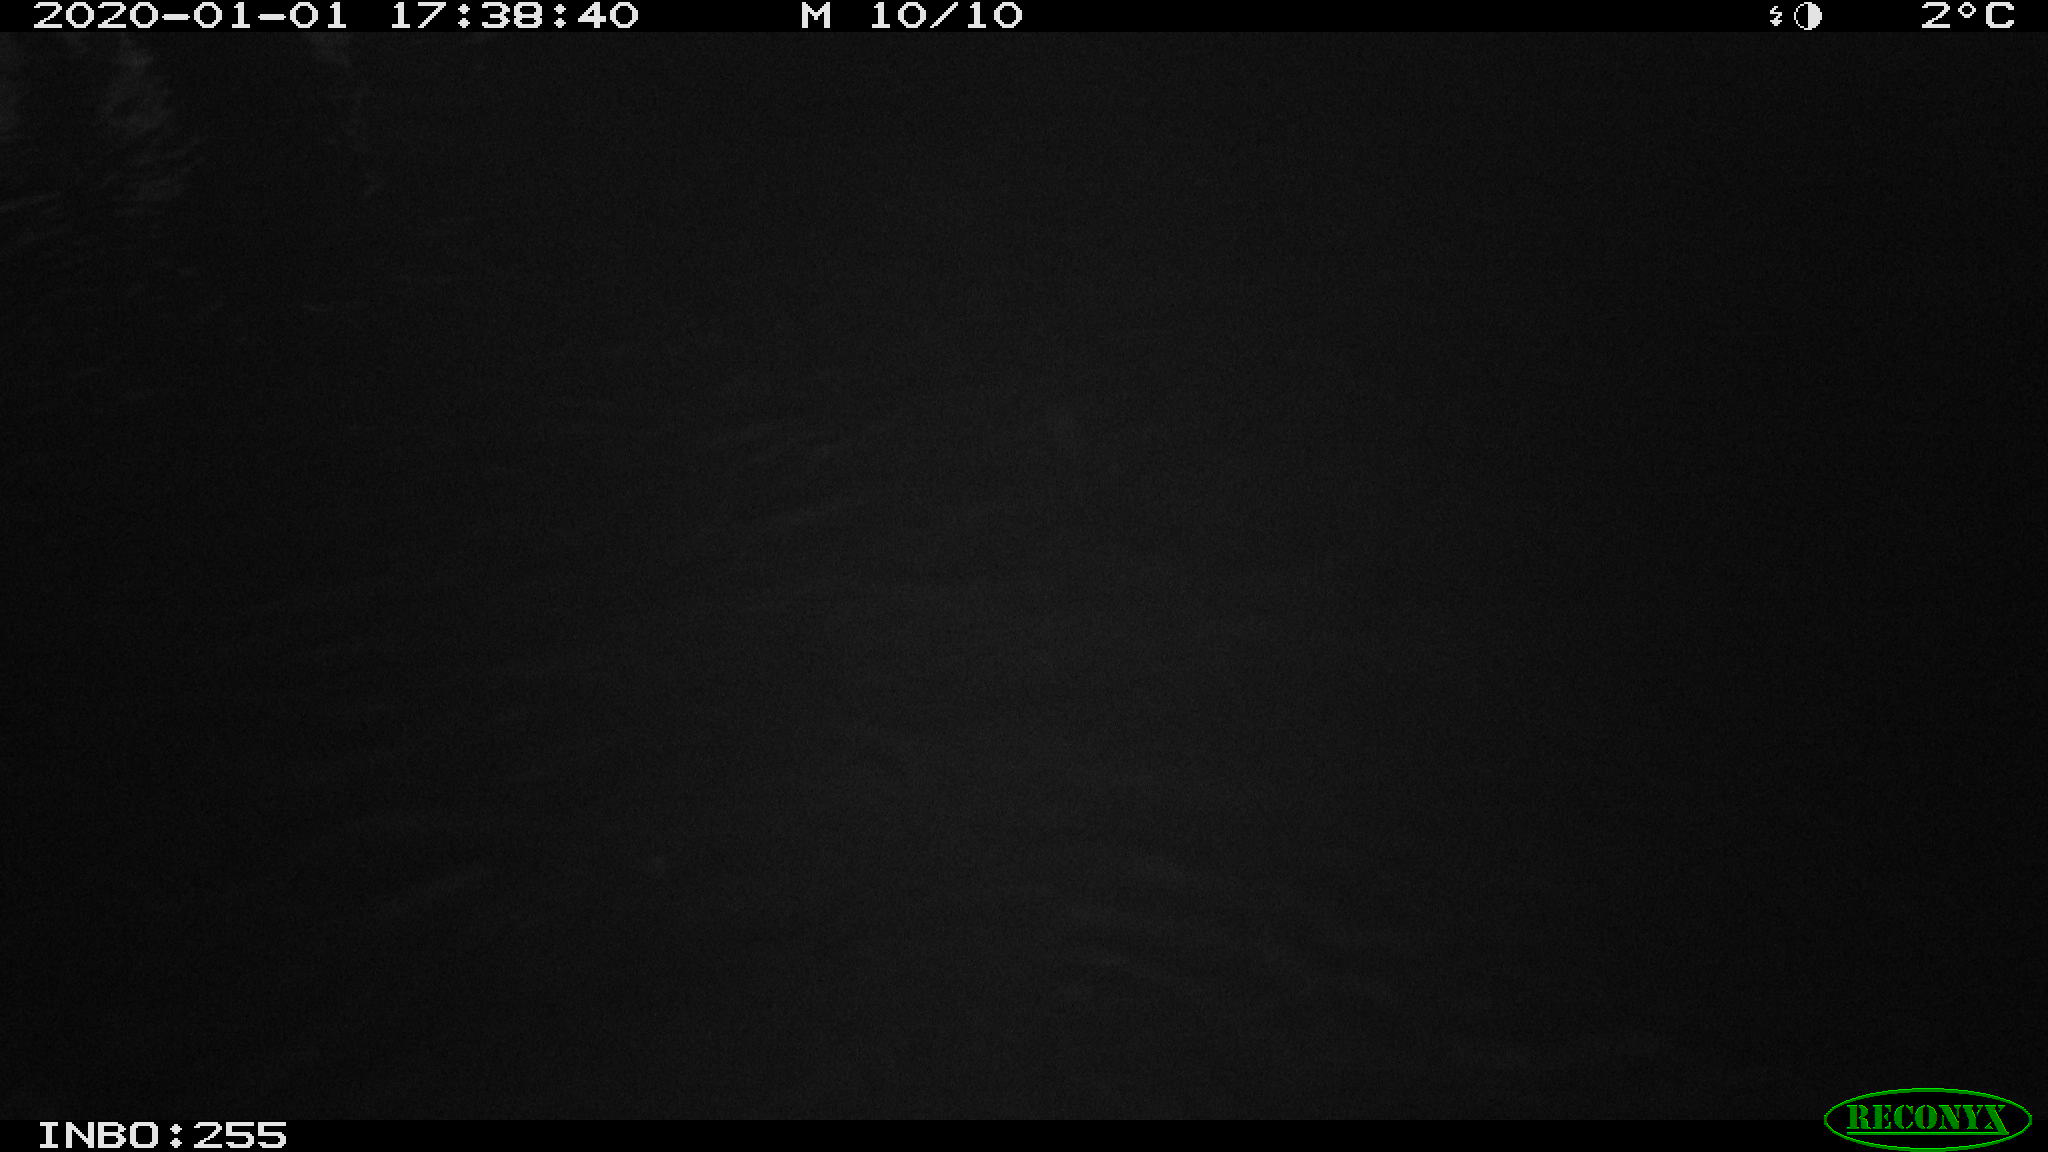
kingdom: Animalia
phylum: Chordata
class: Aves
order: Anseriformes
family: Anatidae
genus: Anas
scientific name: Anas platyrhynchos
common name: Mallard
